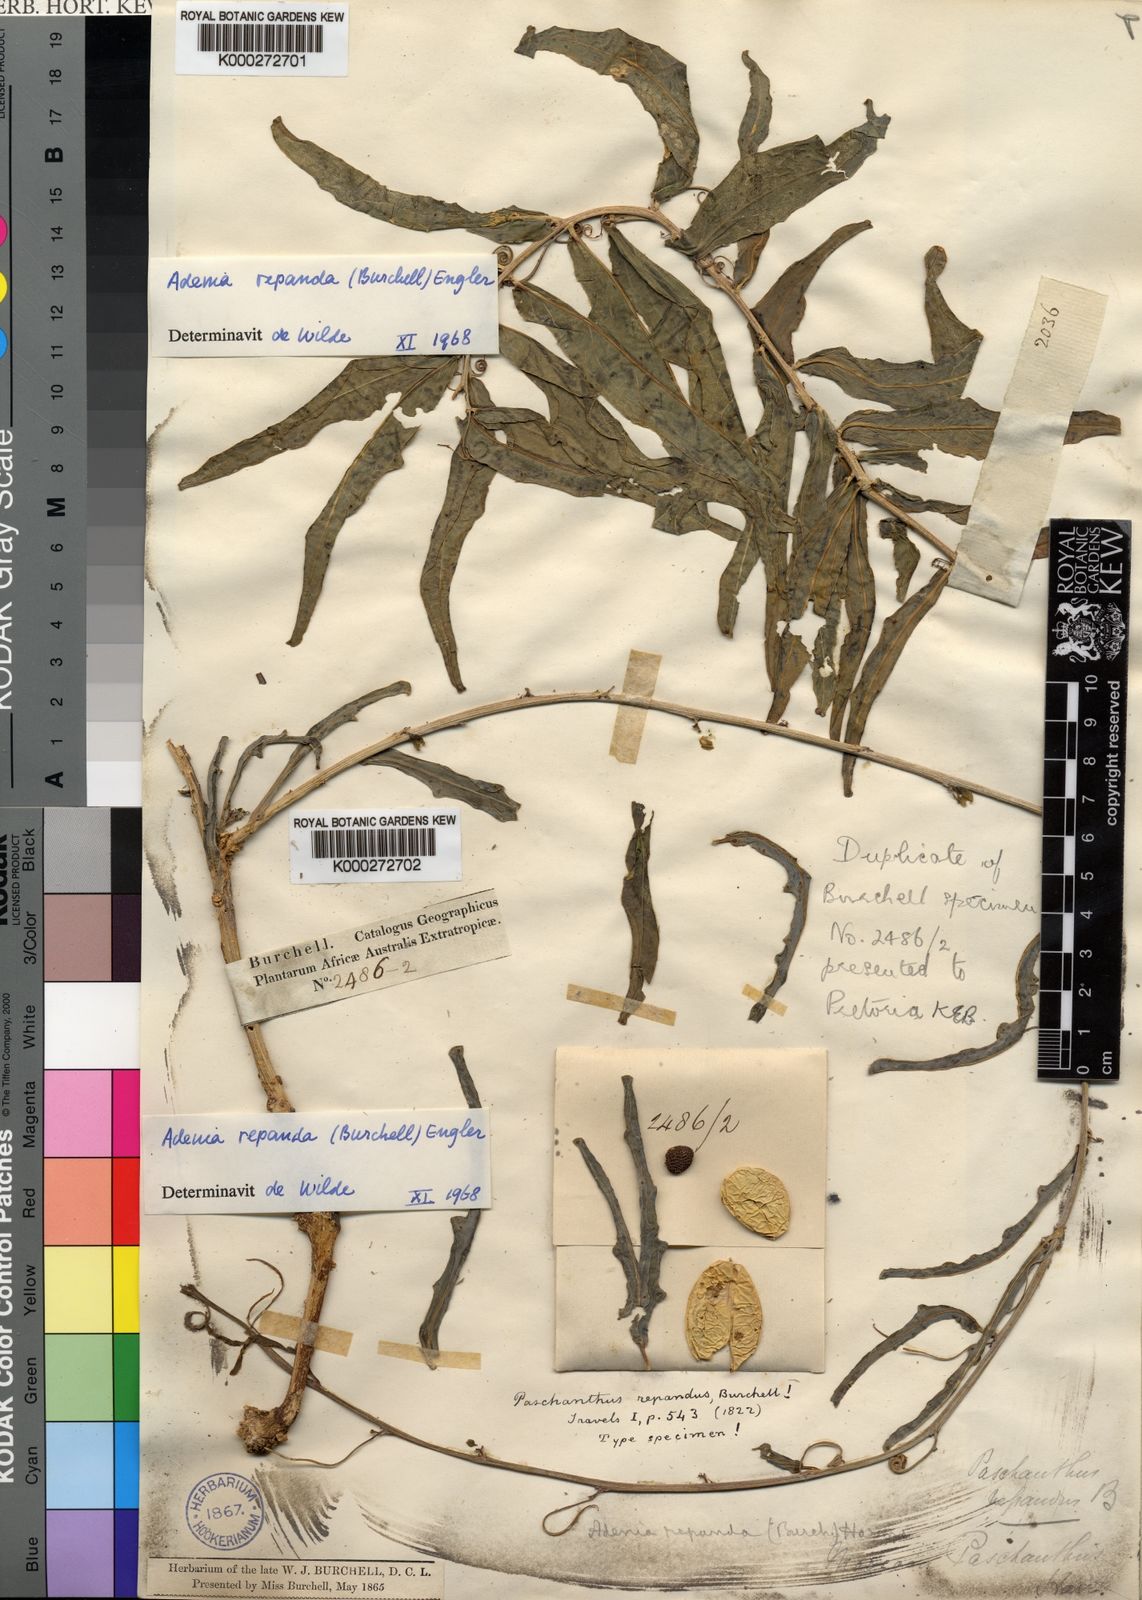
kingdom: Plantae
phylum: Tracheophyta
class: Magnoliopsida
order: Malpighiales
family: Passifloraceae
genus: Adenia
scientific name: Adenia repanda
